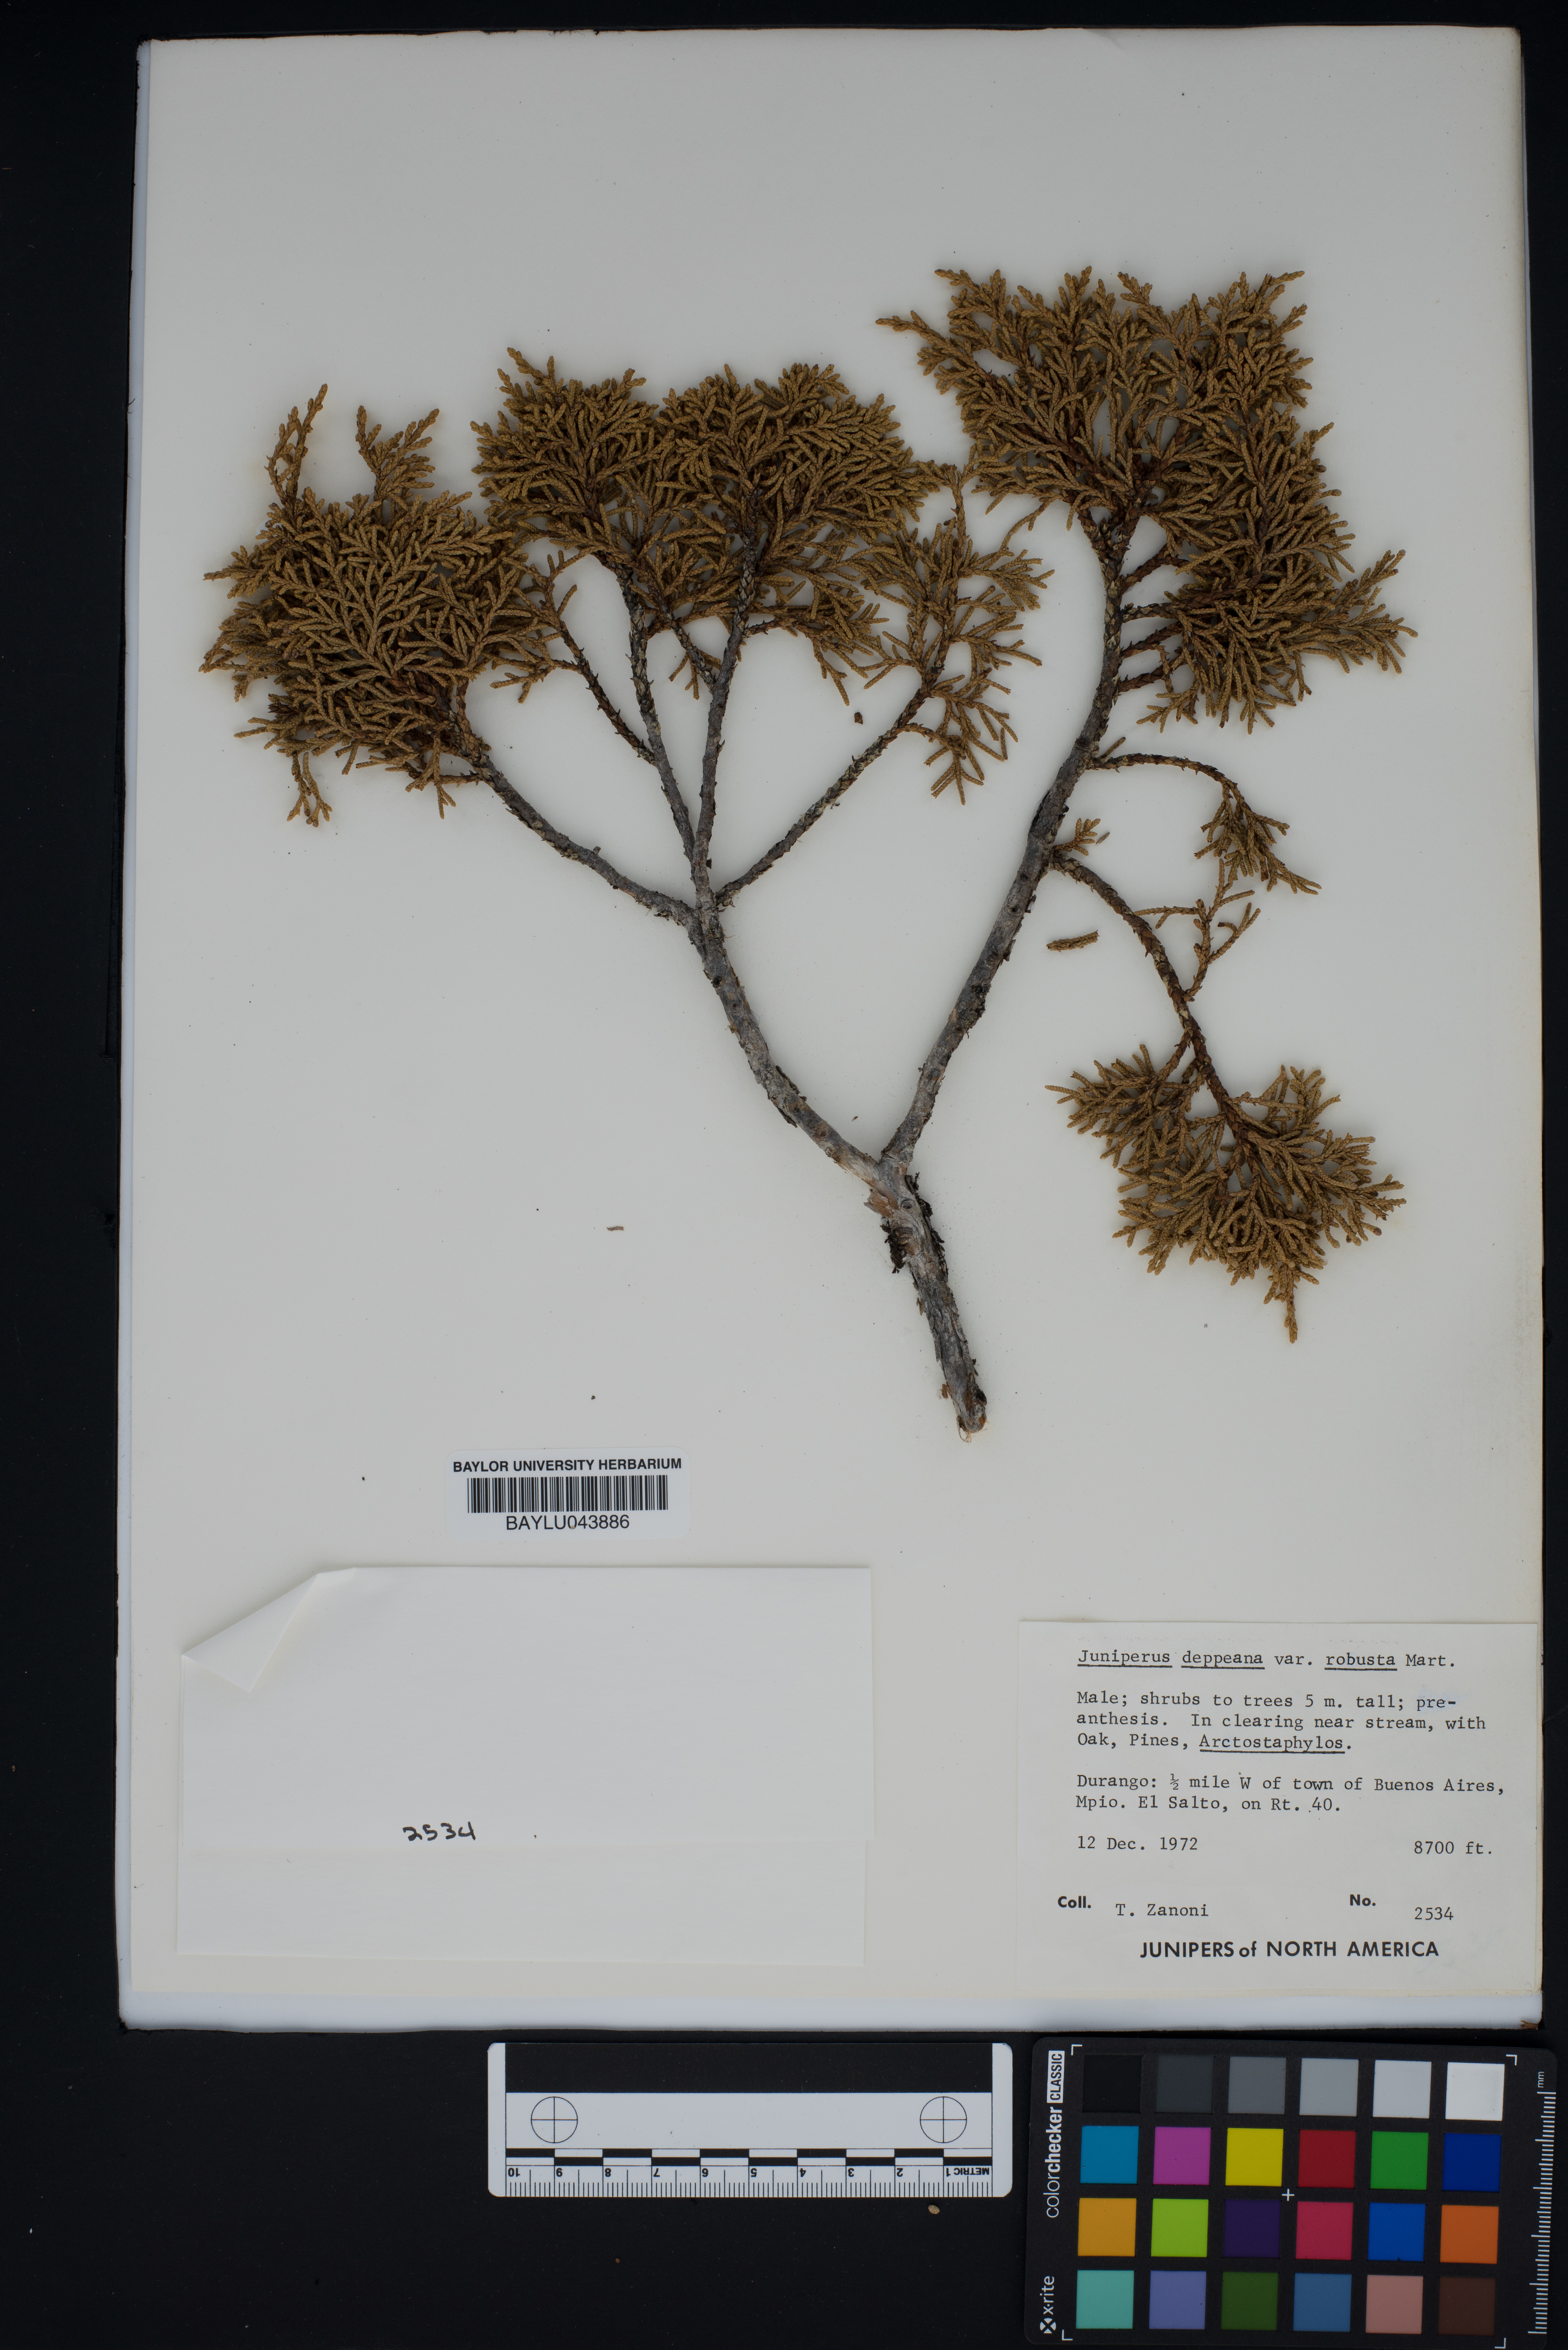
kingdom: Plantae
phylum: Tracheophyta
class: Pinopsida
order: Pinales
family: Cupressaceae
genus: Juniperus
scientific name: Juniperus deppeana
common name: Alligator juniper
